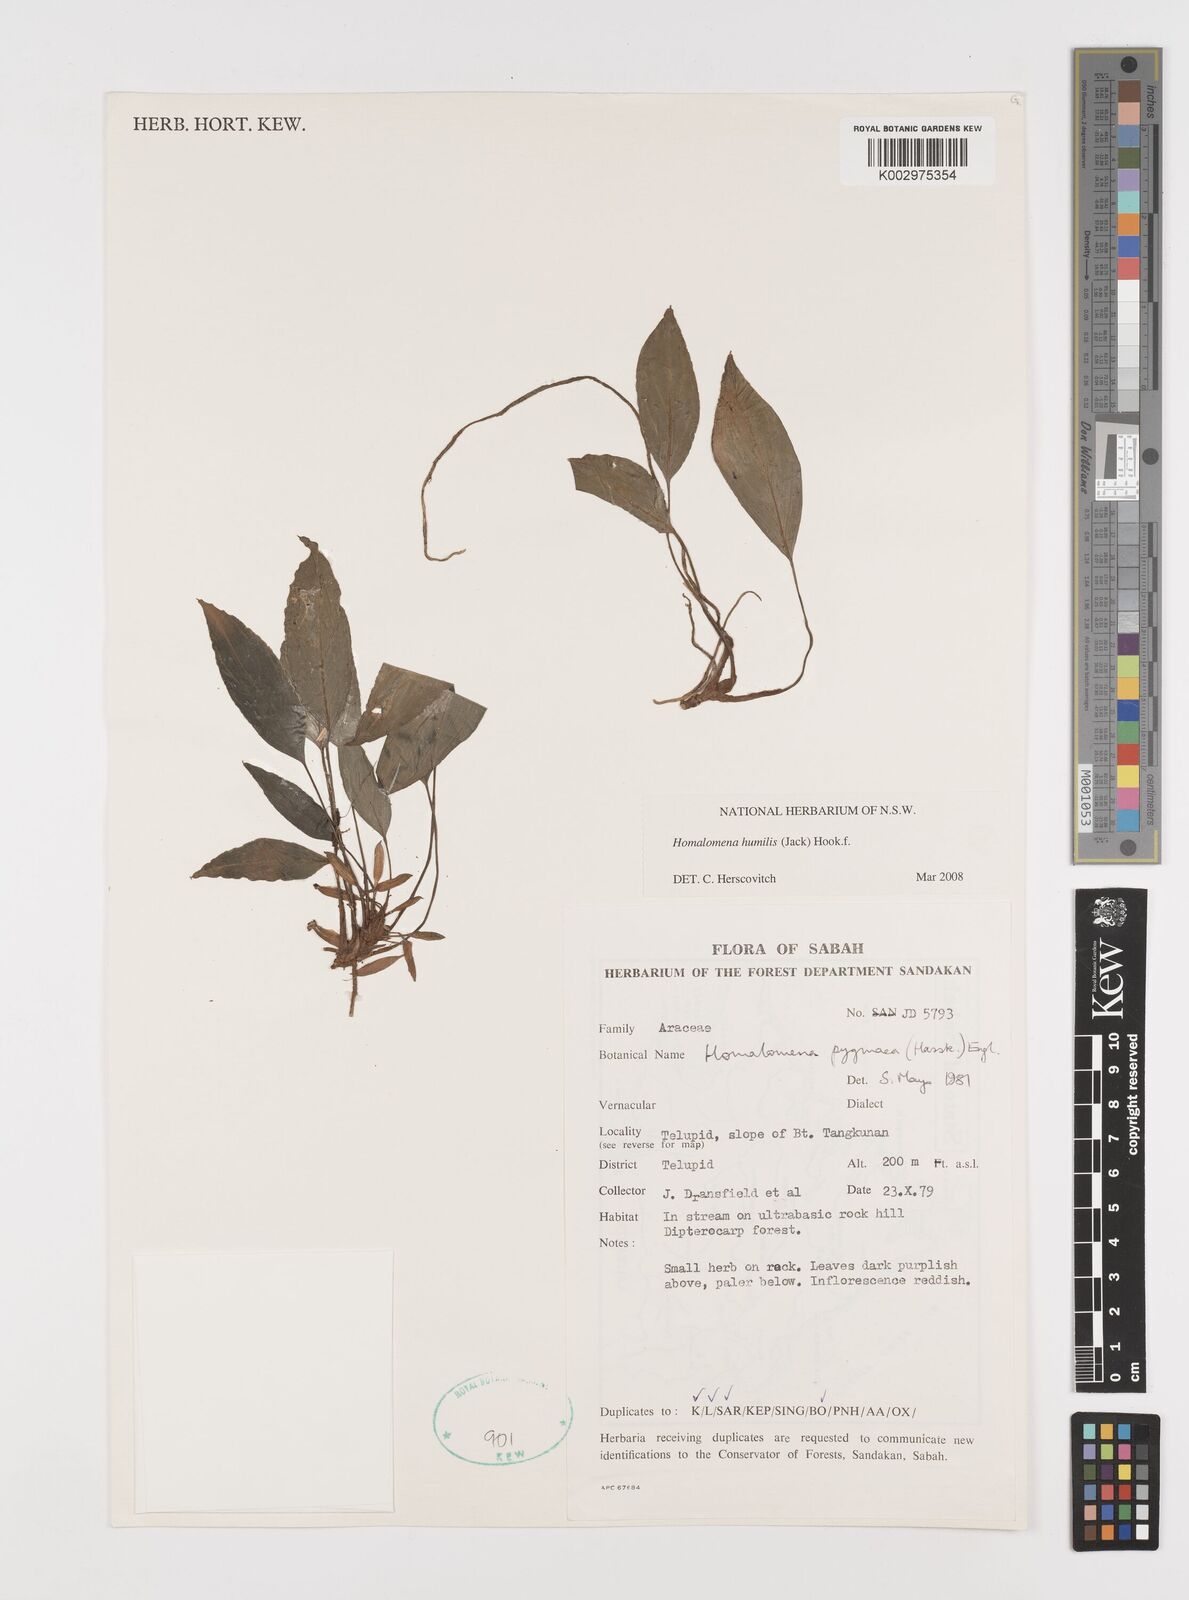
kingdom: Plantae
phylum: Tracheophyta
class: Liliopsida
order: Alismatales
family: Araceae
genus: Homalomena
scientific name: Homalomena humilis
